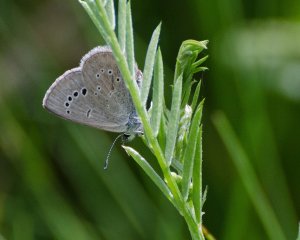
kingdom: Animalia
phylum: Arthropoda
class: Insecta
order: Lepidoptera
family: Lycaenidae
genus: Glaucopsyche
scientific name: Glaucopsyche lygdamus
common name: Silvery Blue
